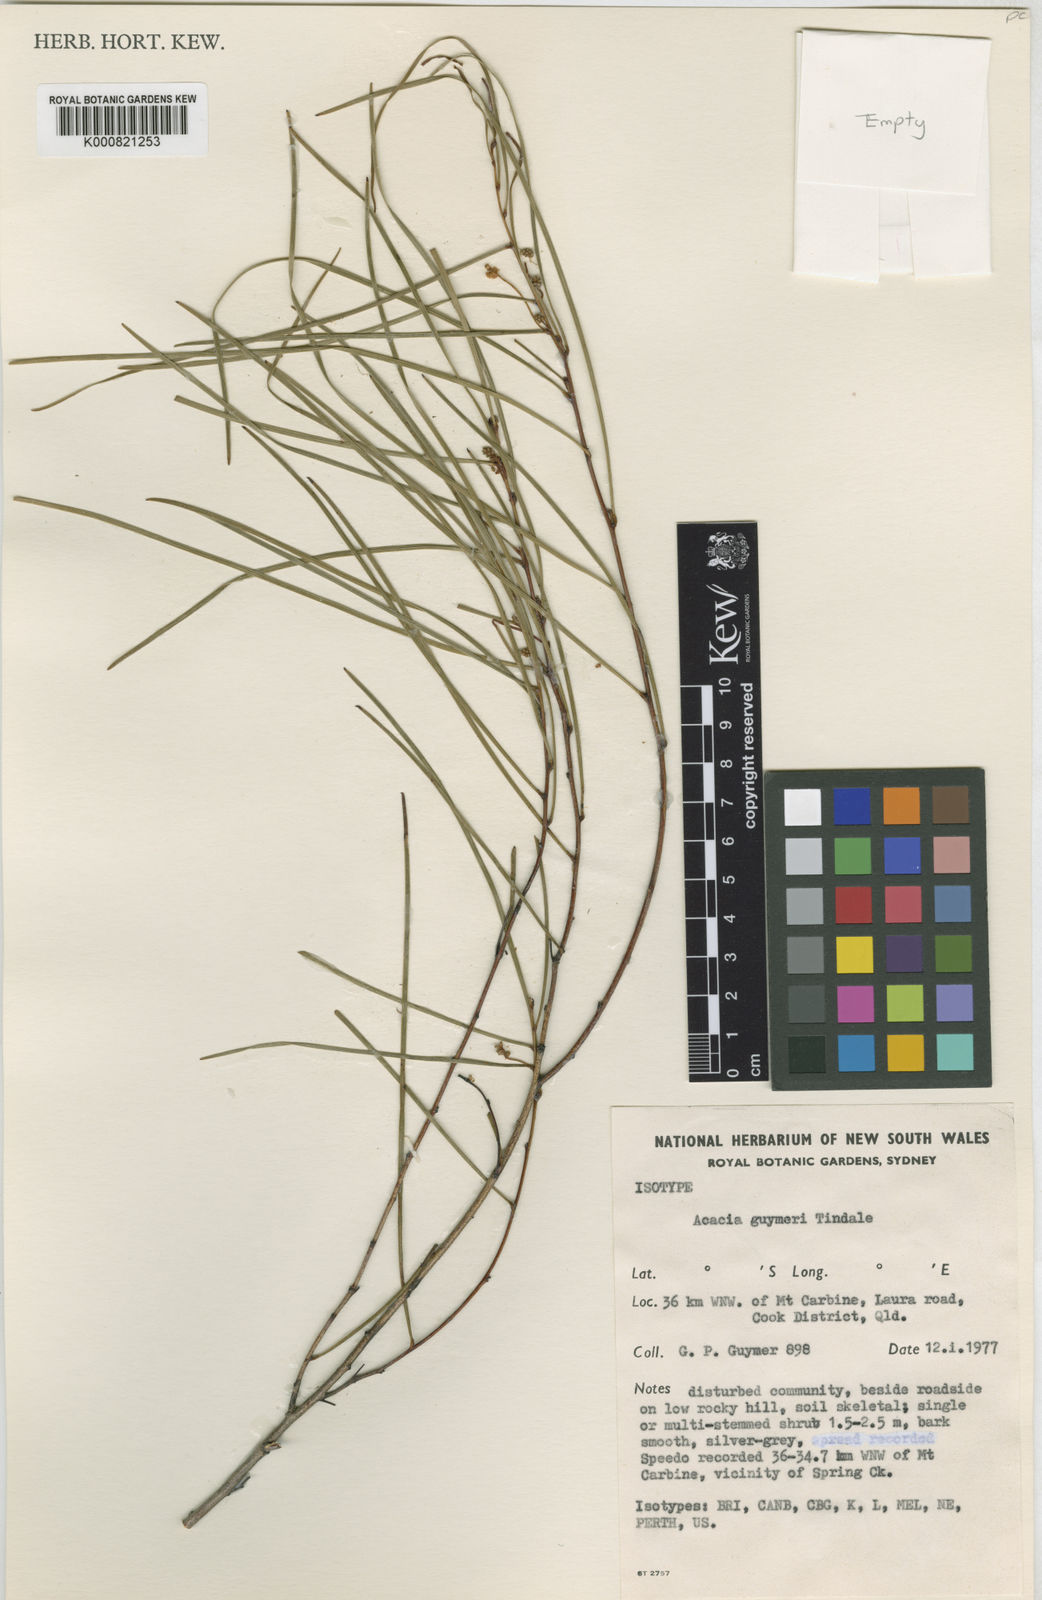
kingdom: Plantae
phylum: Tracheophyta
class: Magnoliopsida
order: Fabales
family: Fabaceae
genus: Acacia
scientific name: Acacia guymeri
